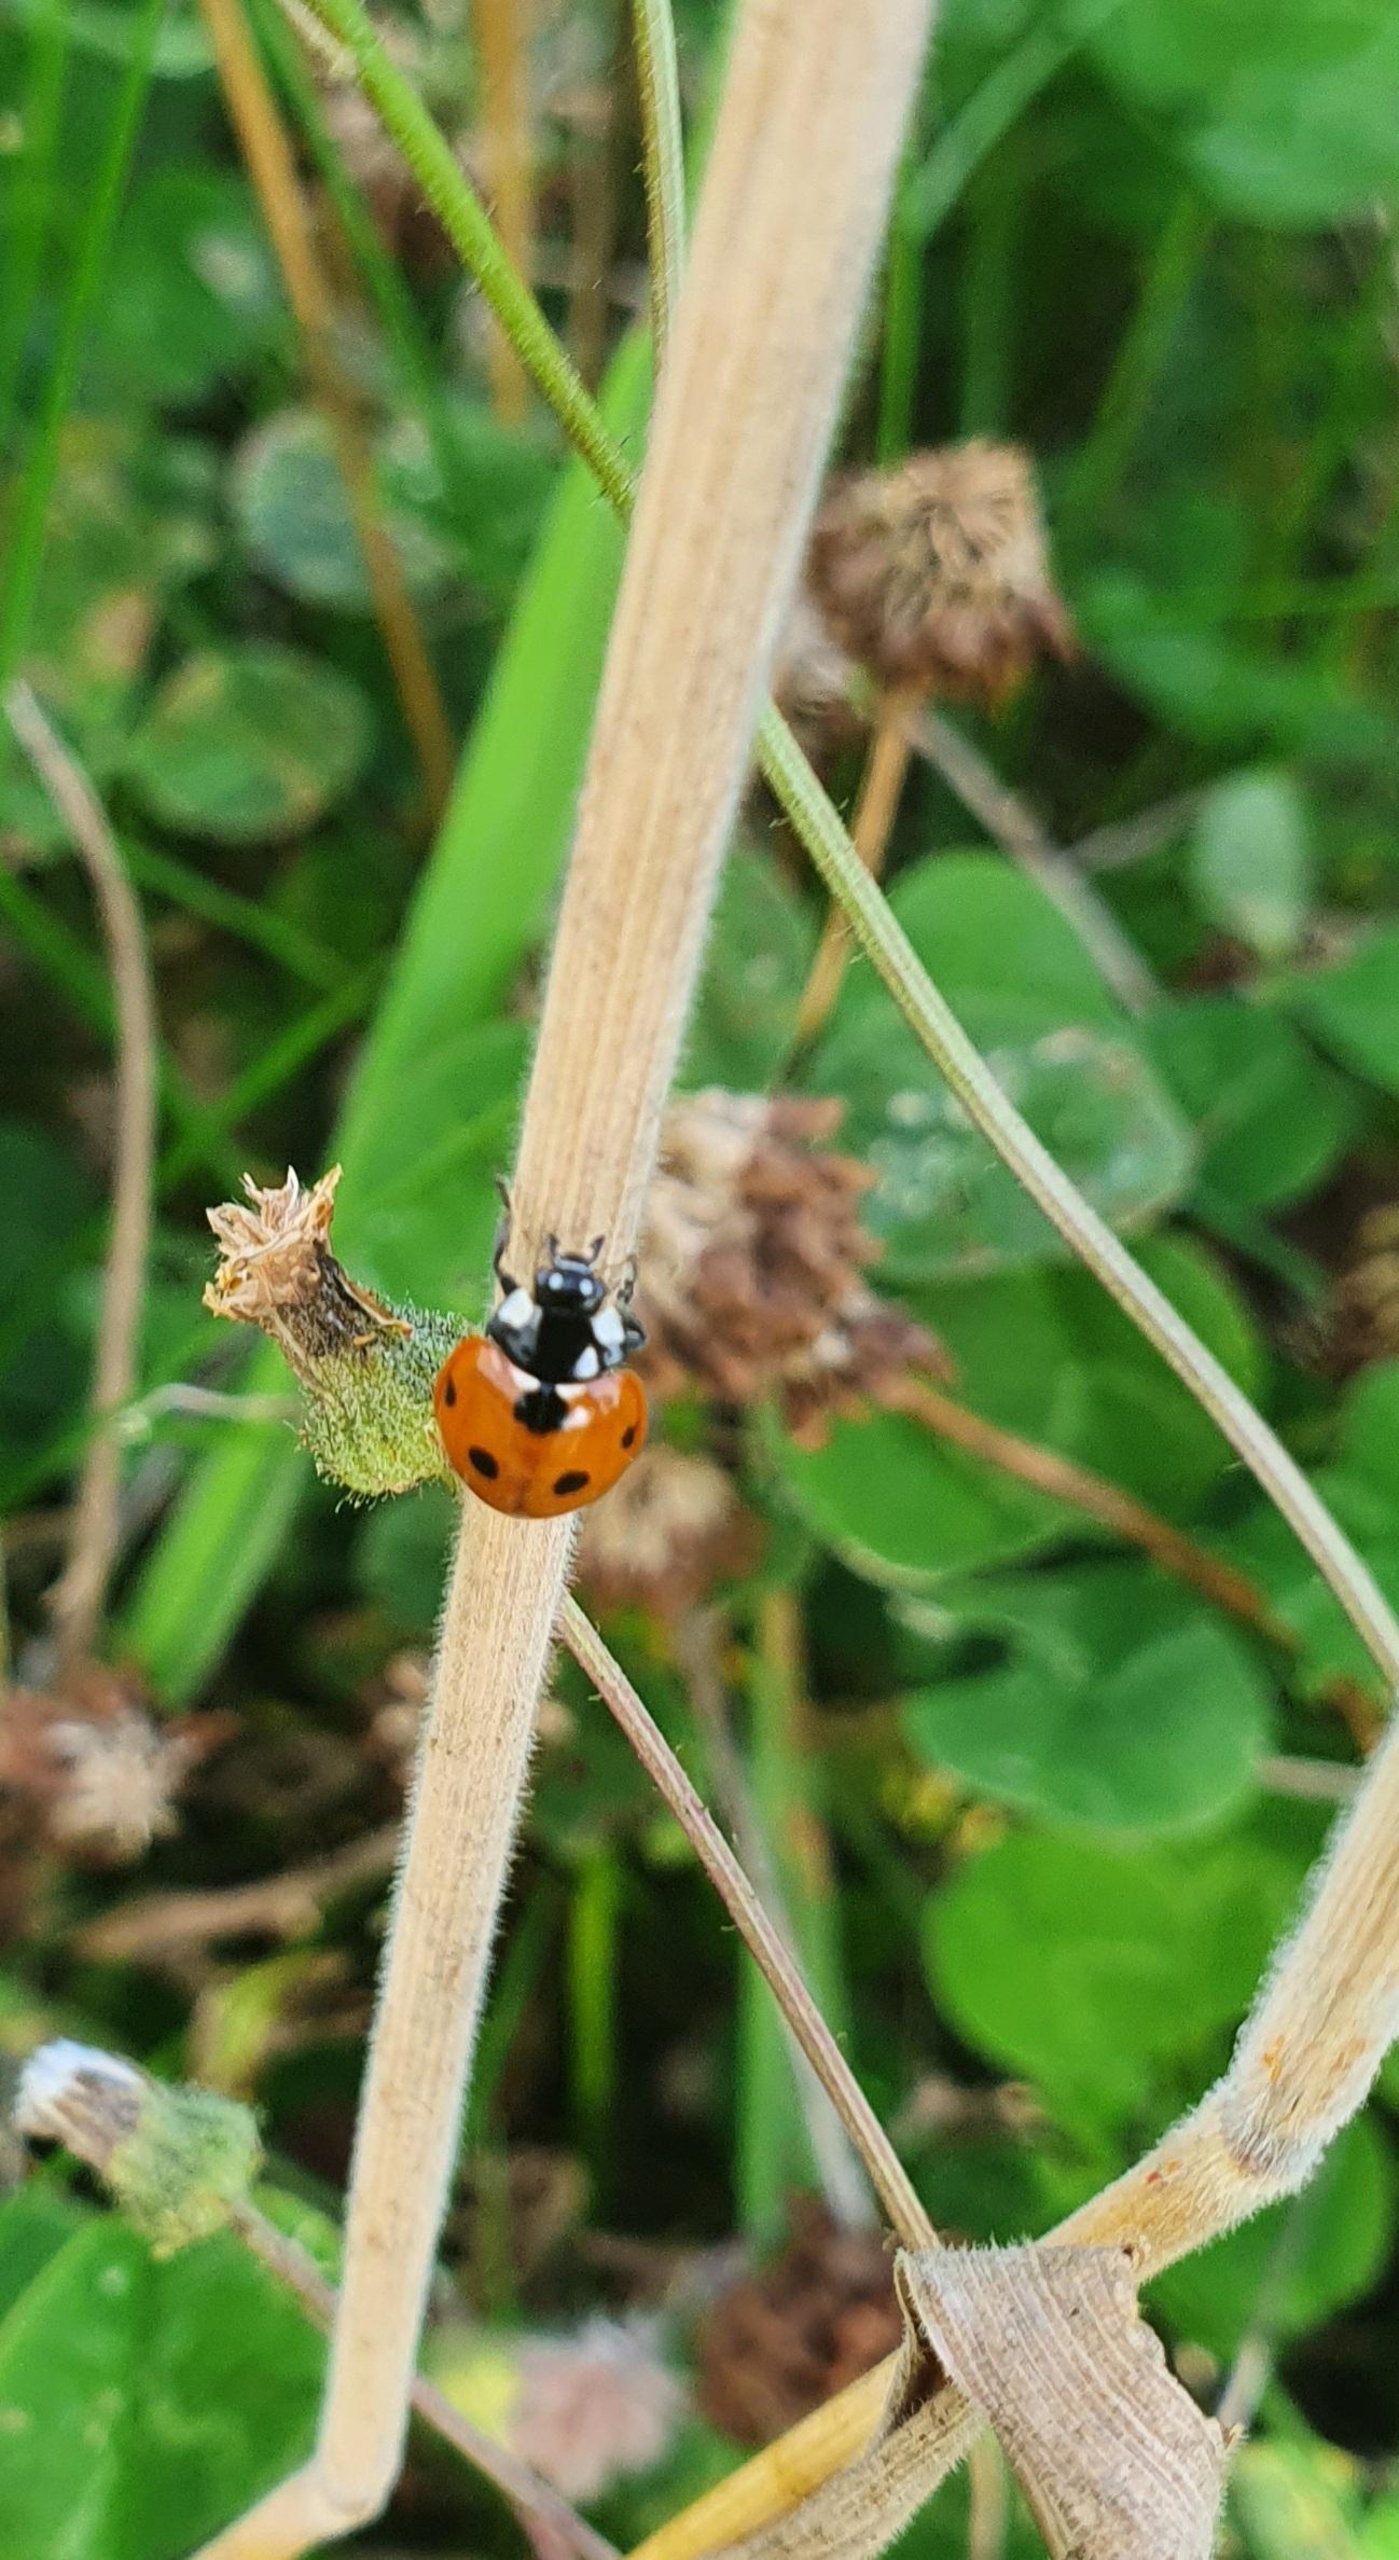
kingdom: Animalia
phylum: Arthropoda
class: Insecta
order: Coleoptera
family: Coccinellidae
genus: Coccinella
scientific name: Coccinella septempunctata
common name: Syvplettet mariehøne
